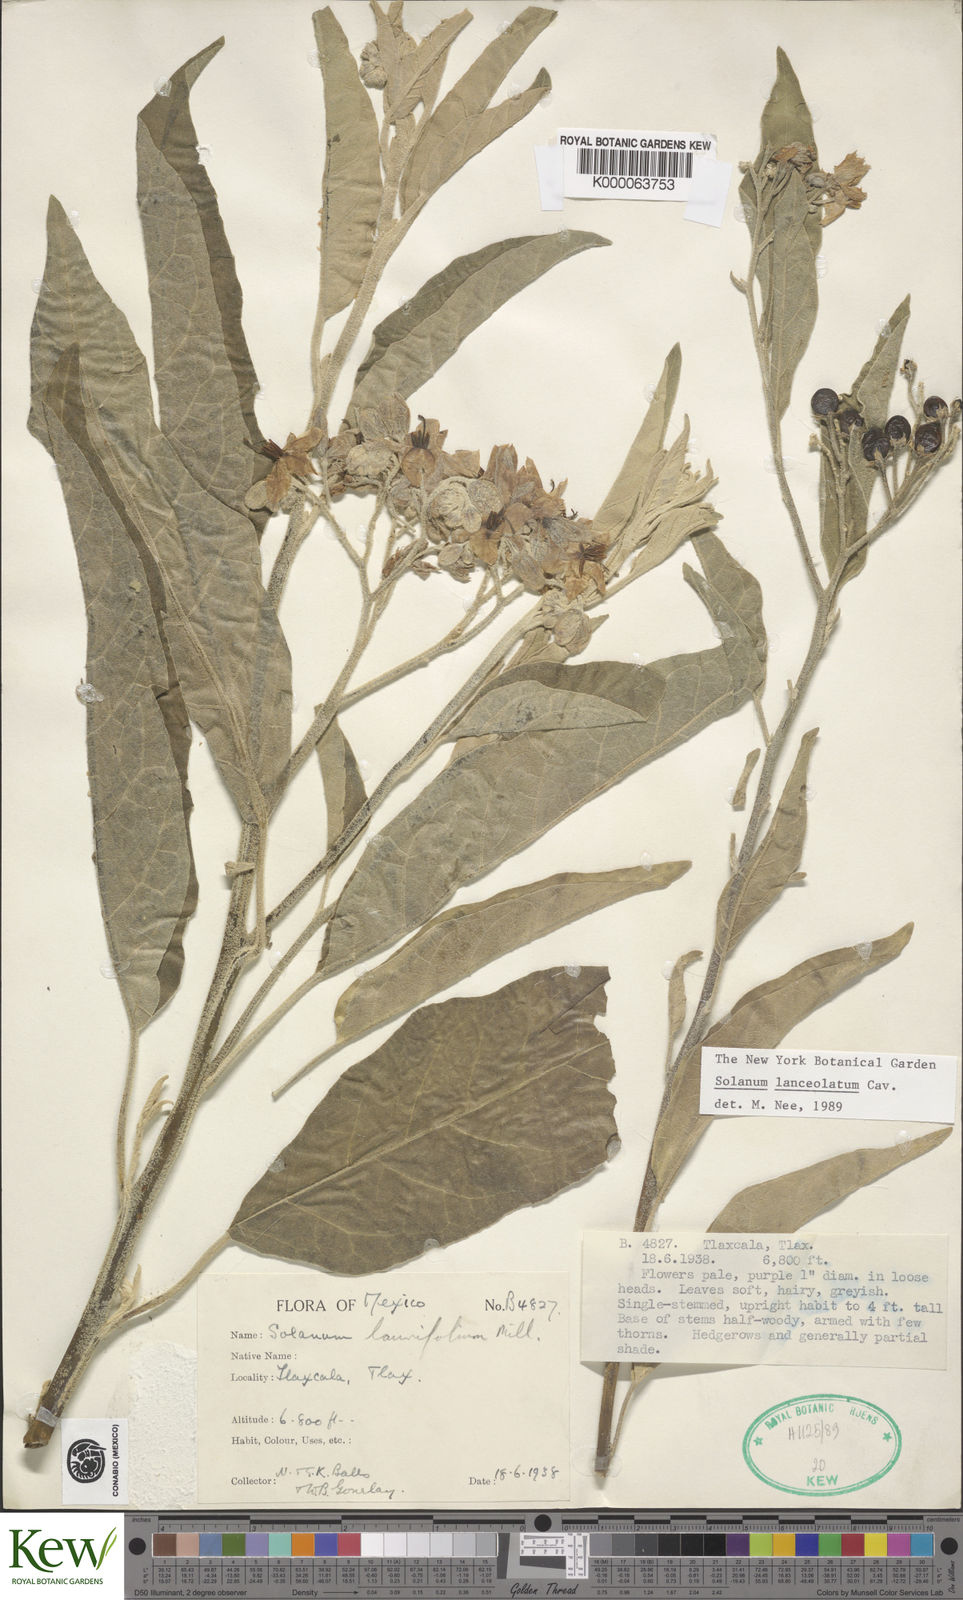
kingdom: Plantae
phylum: Tracheophyta
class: Magnoliopsida
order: Solanales
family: Solanaceae
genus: Solanum
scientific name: Solanum lanceolatum
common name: Orangeberry nightshade
